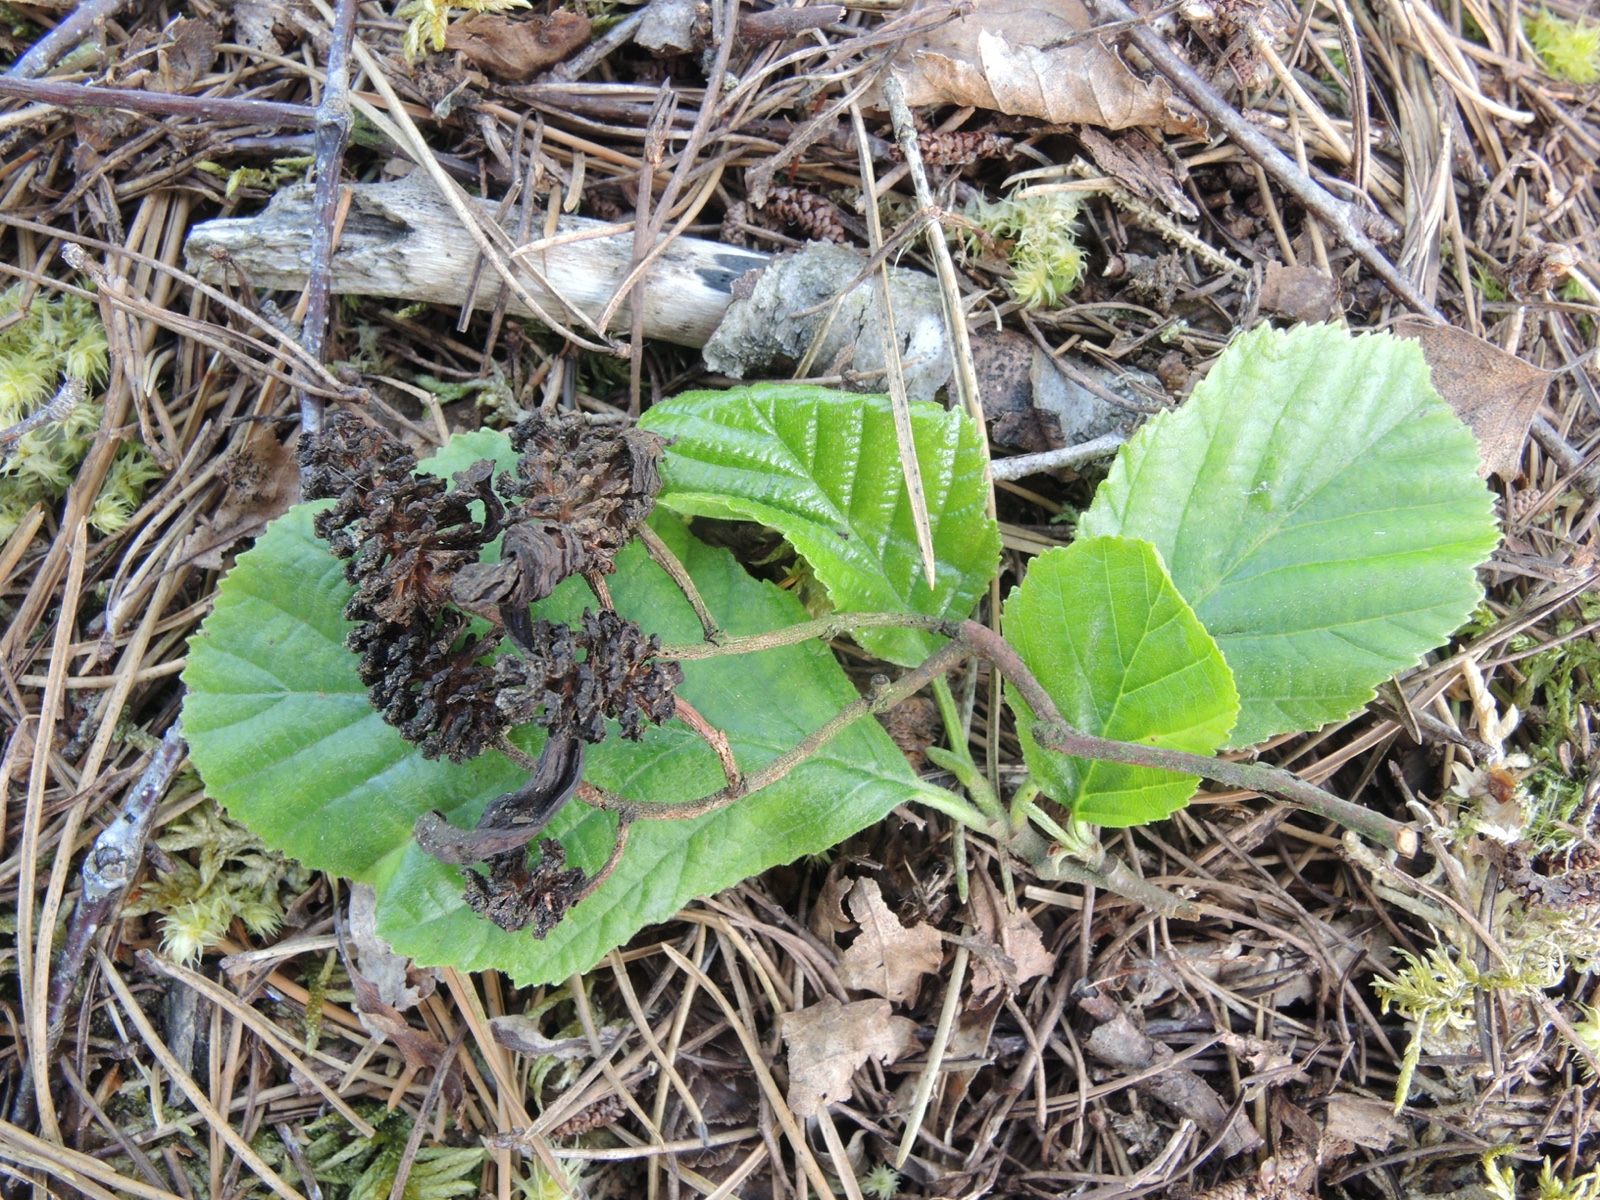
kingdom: Fungi
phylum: Ascomycota
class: Taphrinomycetes
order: Taphrinales
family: Taphrinaceae
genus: Taphrina
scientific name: Taphrina alni
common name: Alder tongue
